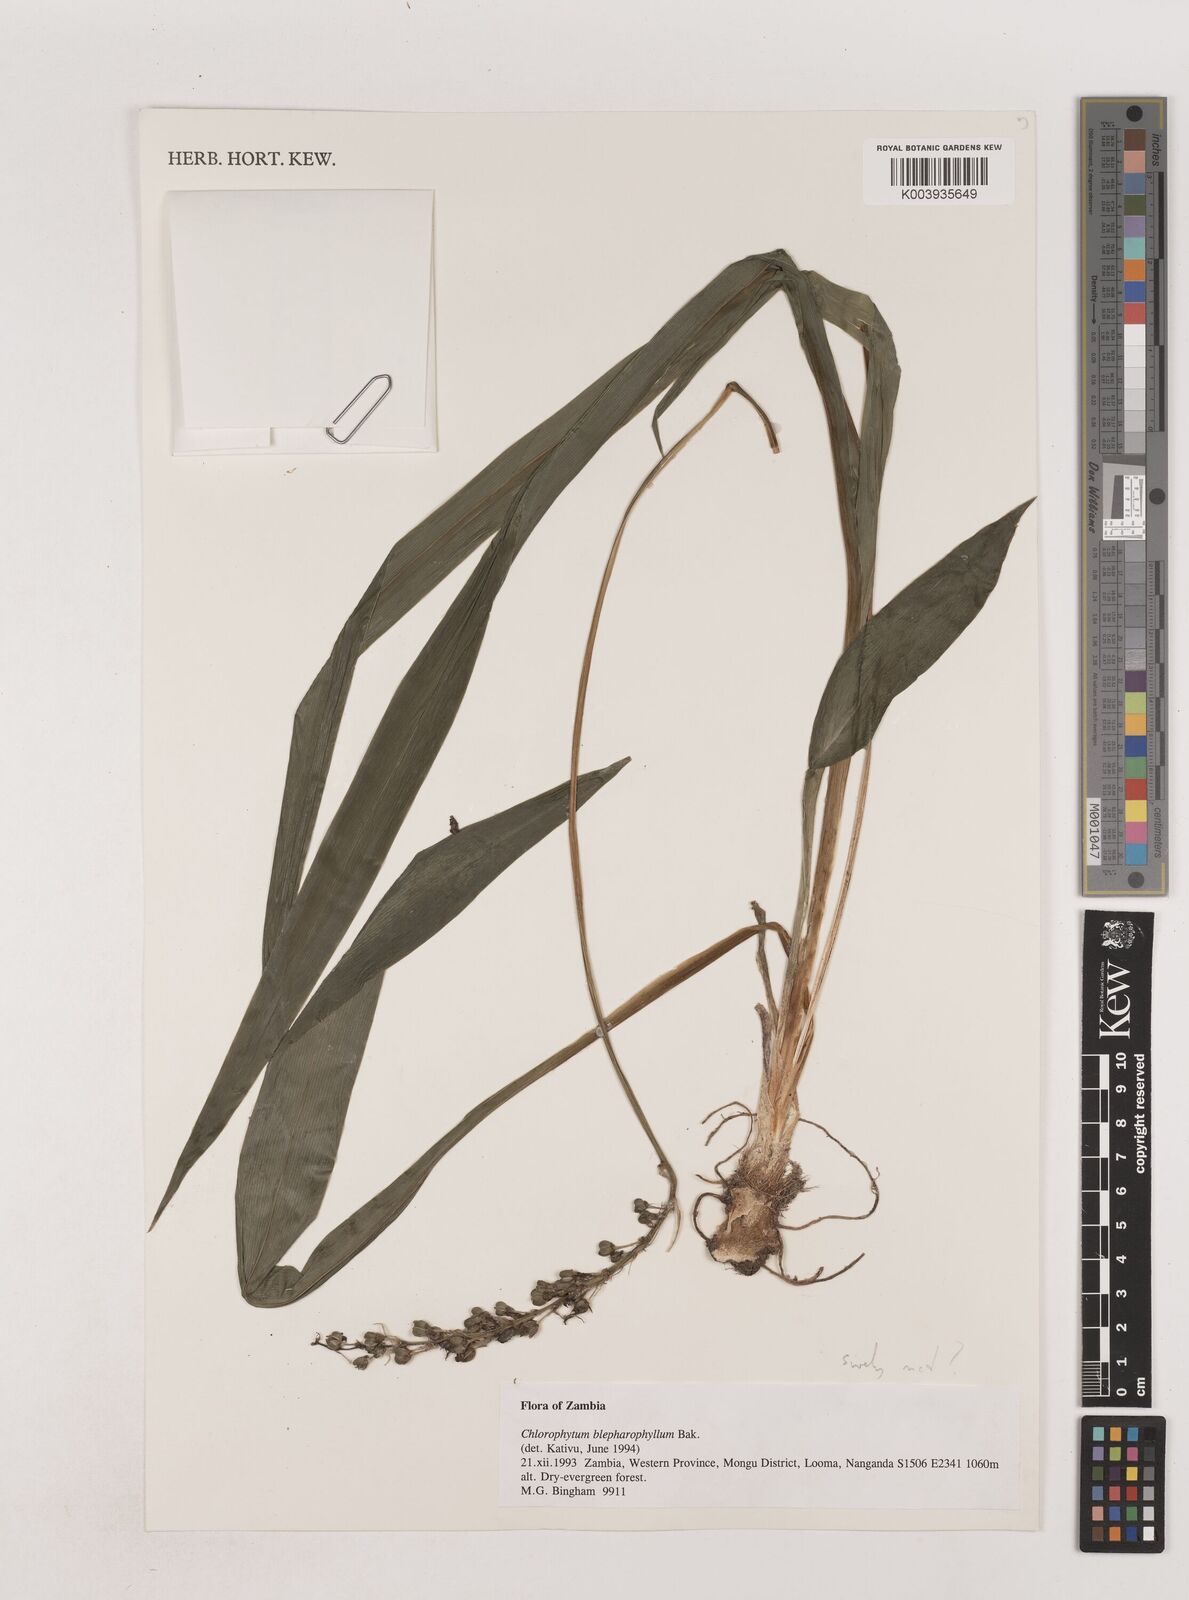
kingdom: Plantae
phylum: Tracheophyta
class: Liliopsida
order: Asparagales
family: Asparagaceae
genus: Chlorophytum
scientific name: Chlorophytum
